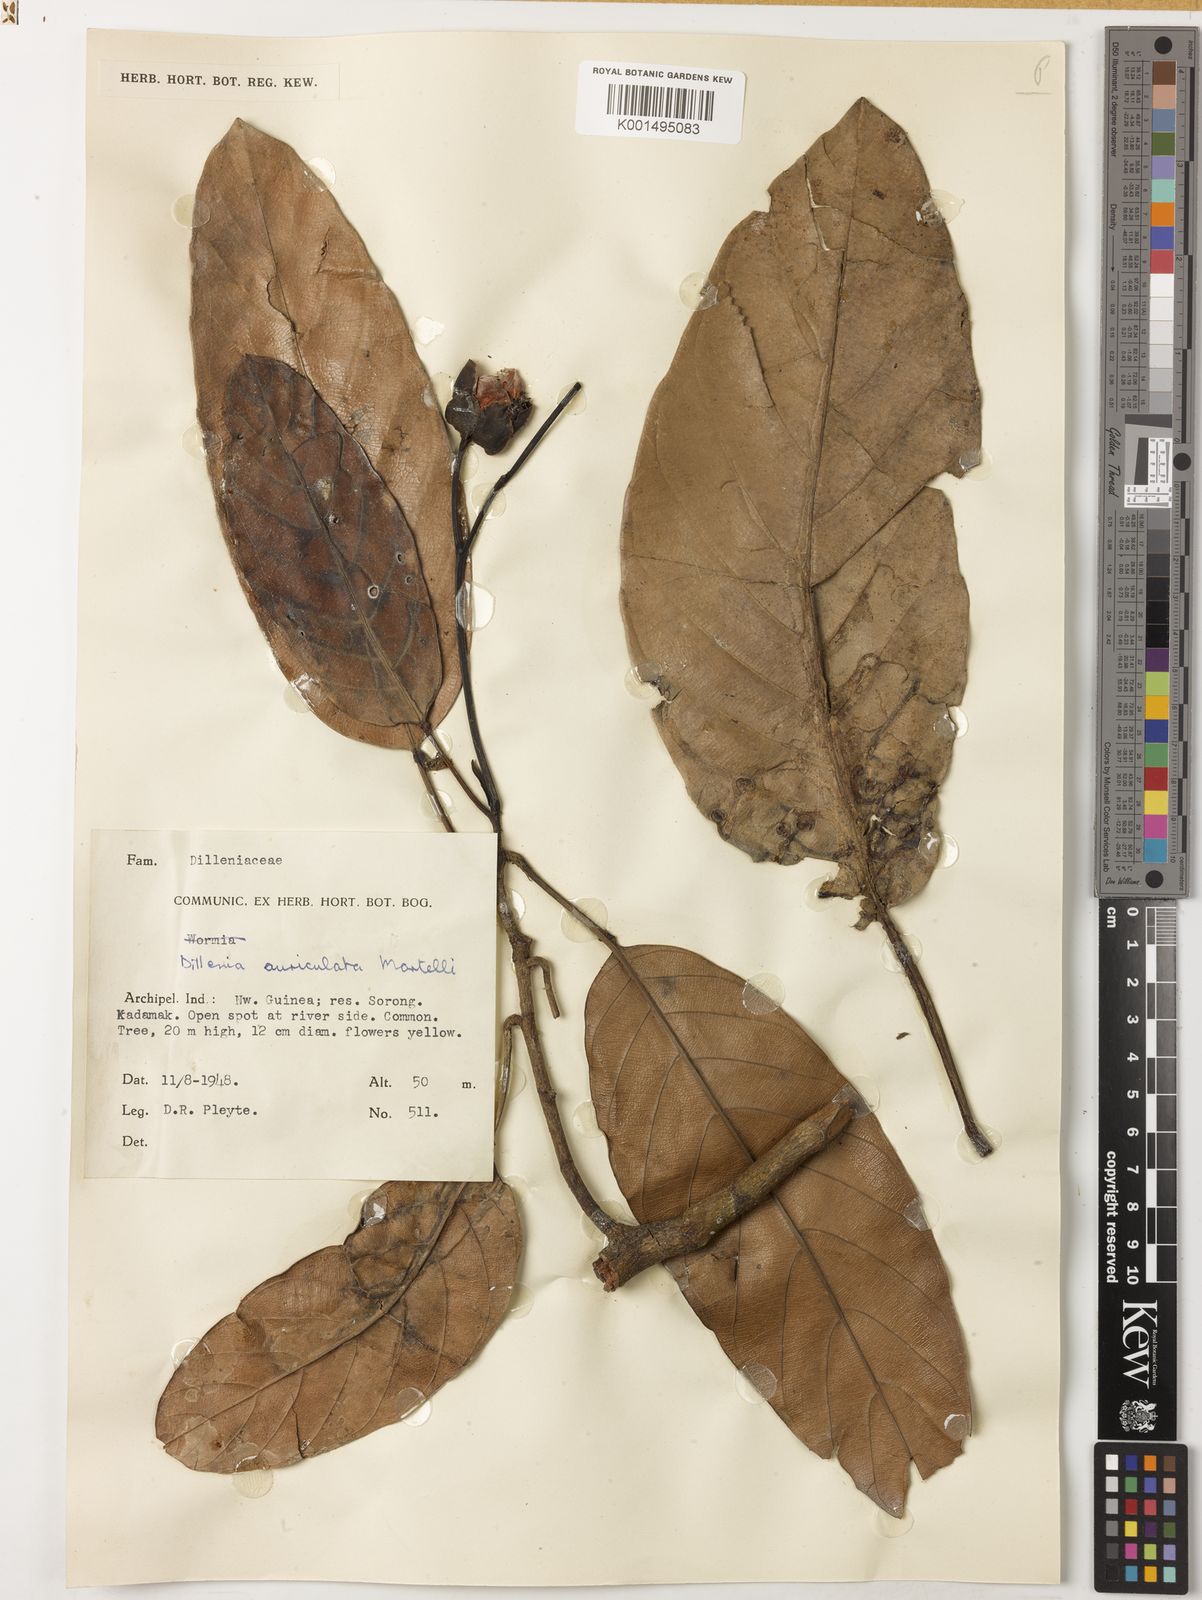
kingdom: Plantae
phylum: Tracheophyta
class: Magnoliopsida
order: Dilleniales
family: Dilleniaceae
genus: Dillenia
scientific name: Dillenia auriculata
